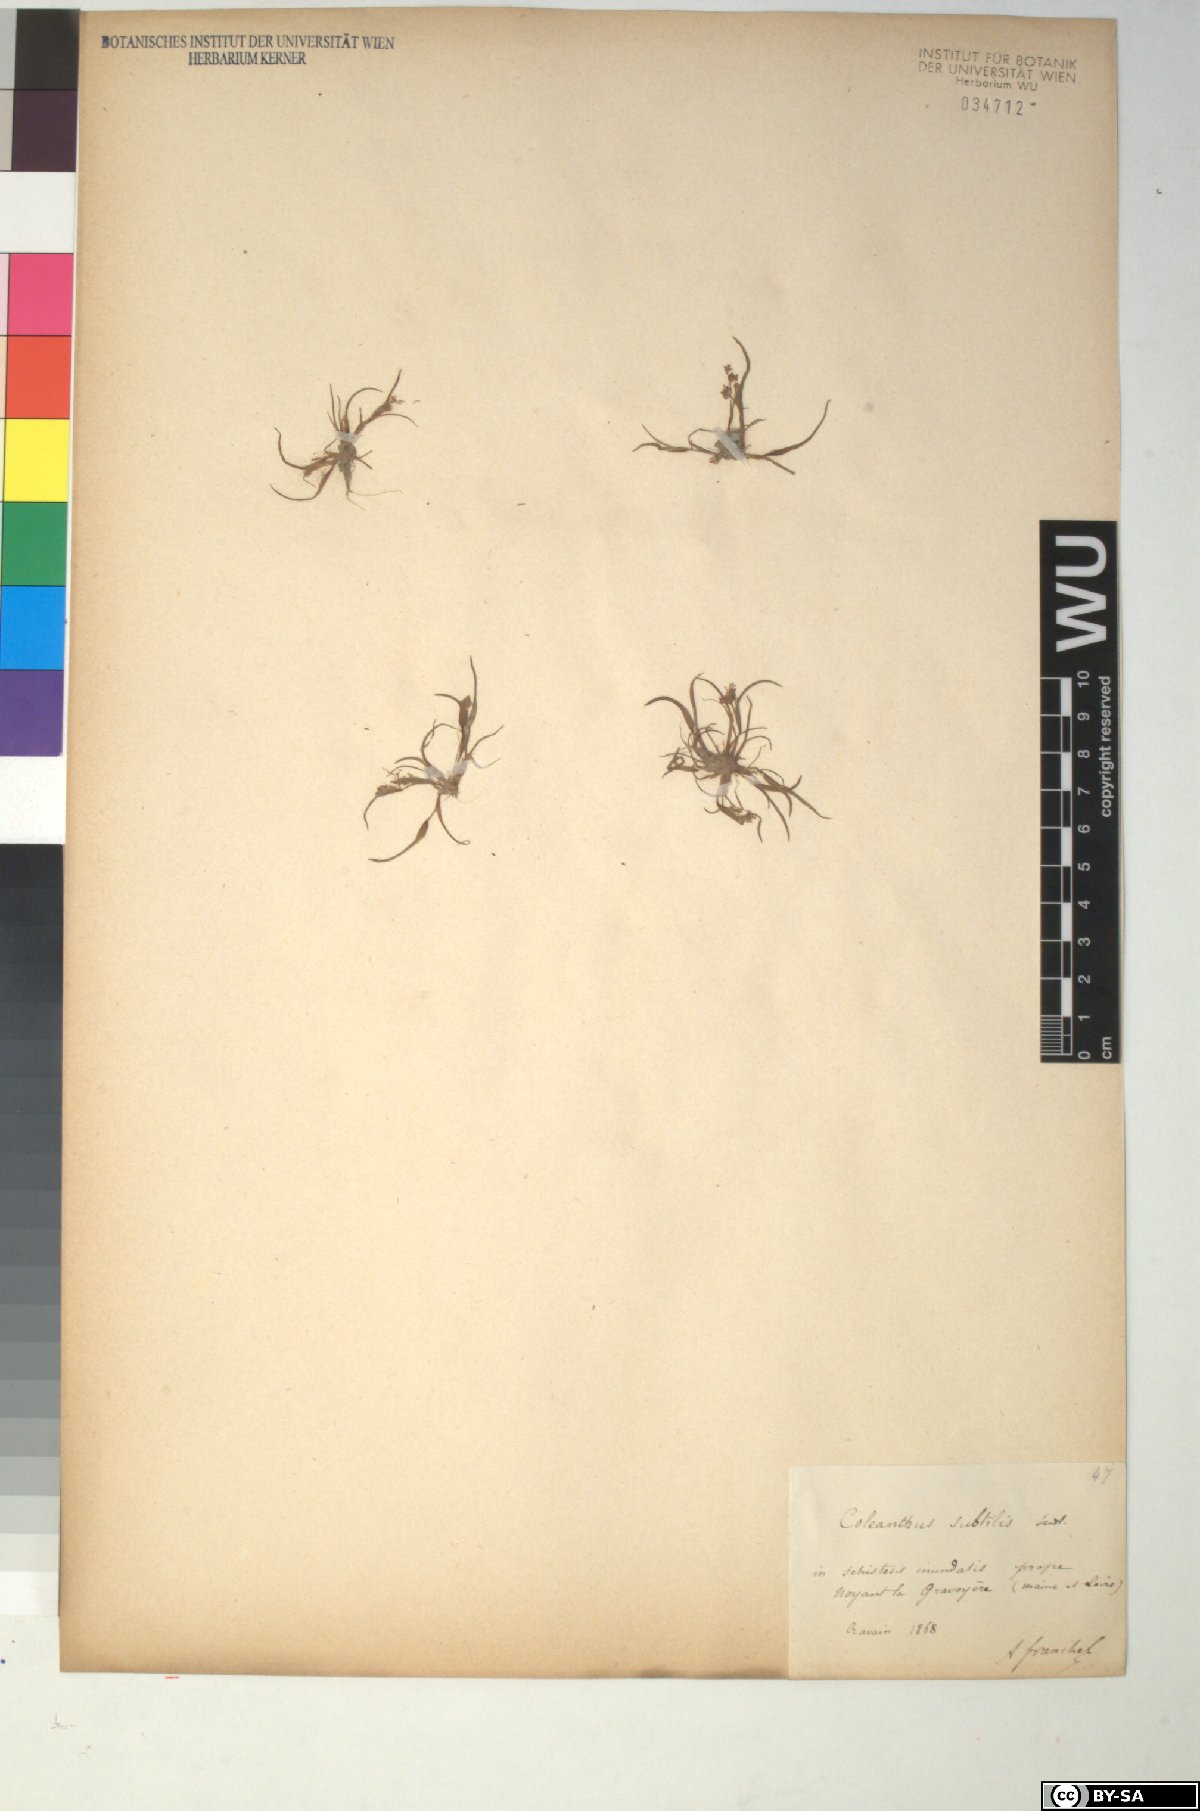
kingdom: Plantae
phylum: Tracheophyta
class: Liliopsida
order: Poales
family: Poaceae
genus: Coleanthus
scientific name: Coleanthus subtilis
